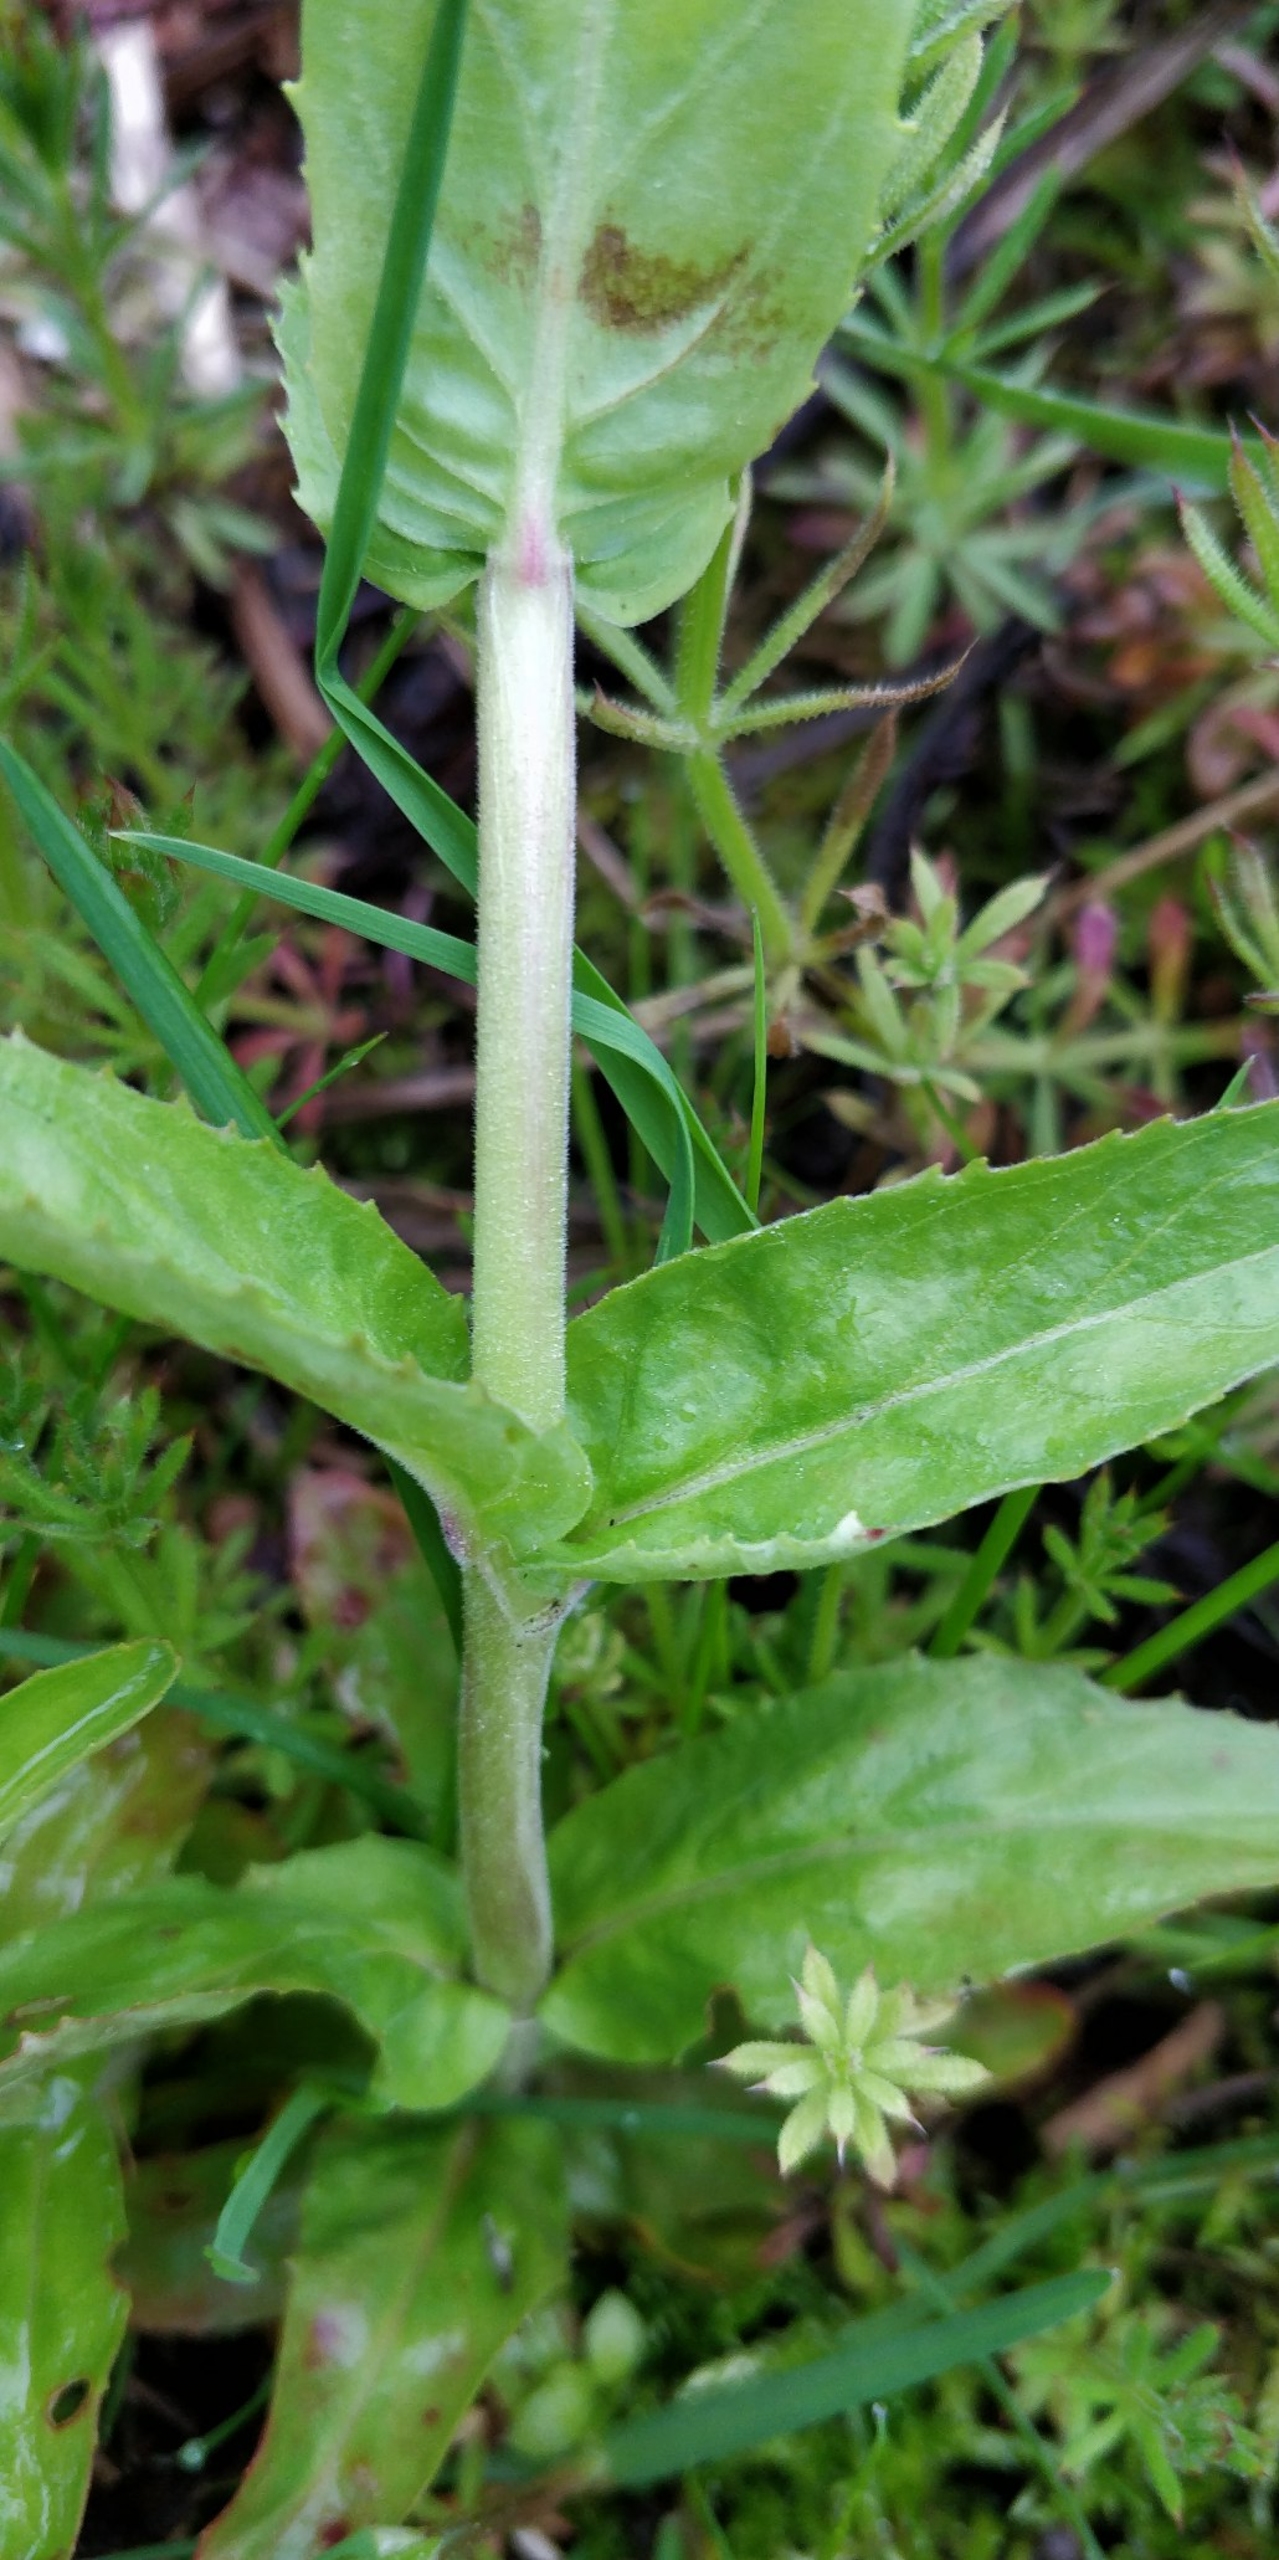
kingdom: Plantae
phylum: Tracheophyta
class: Magnoliopsida
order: Myrtales
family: Onagraceae
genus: Epilobium
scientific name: Epilobium montanum
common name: Glat dueurt
